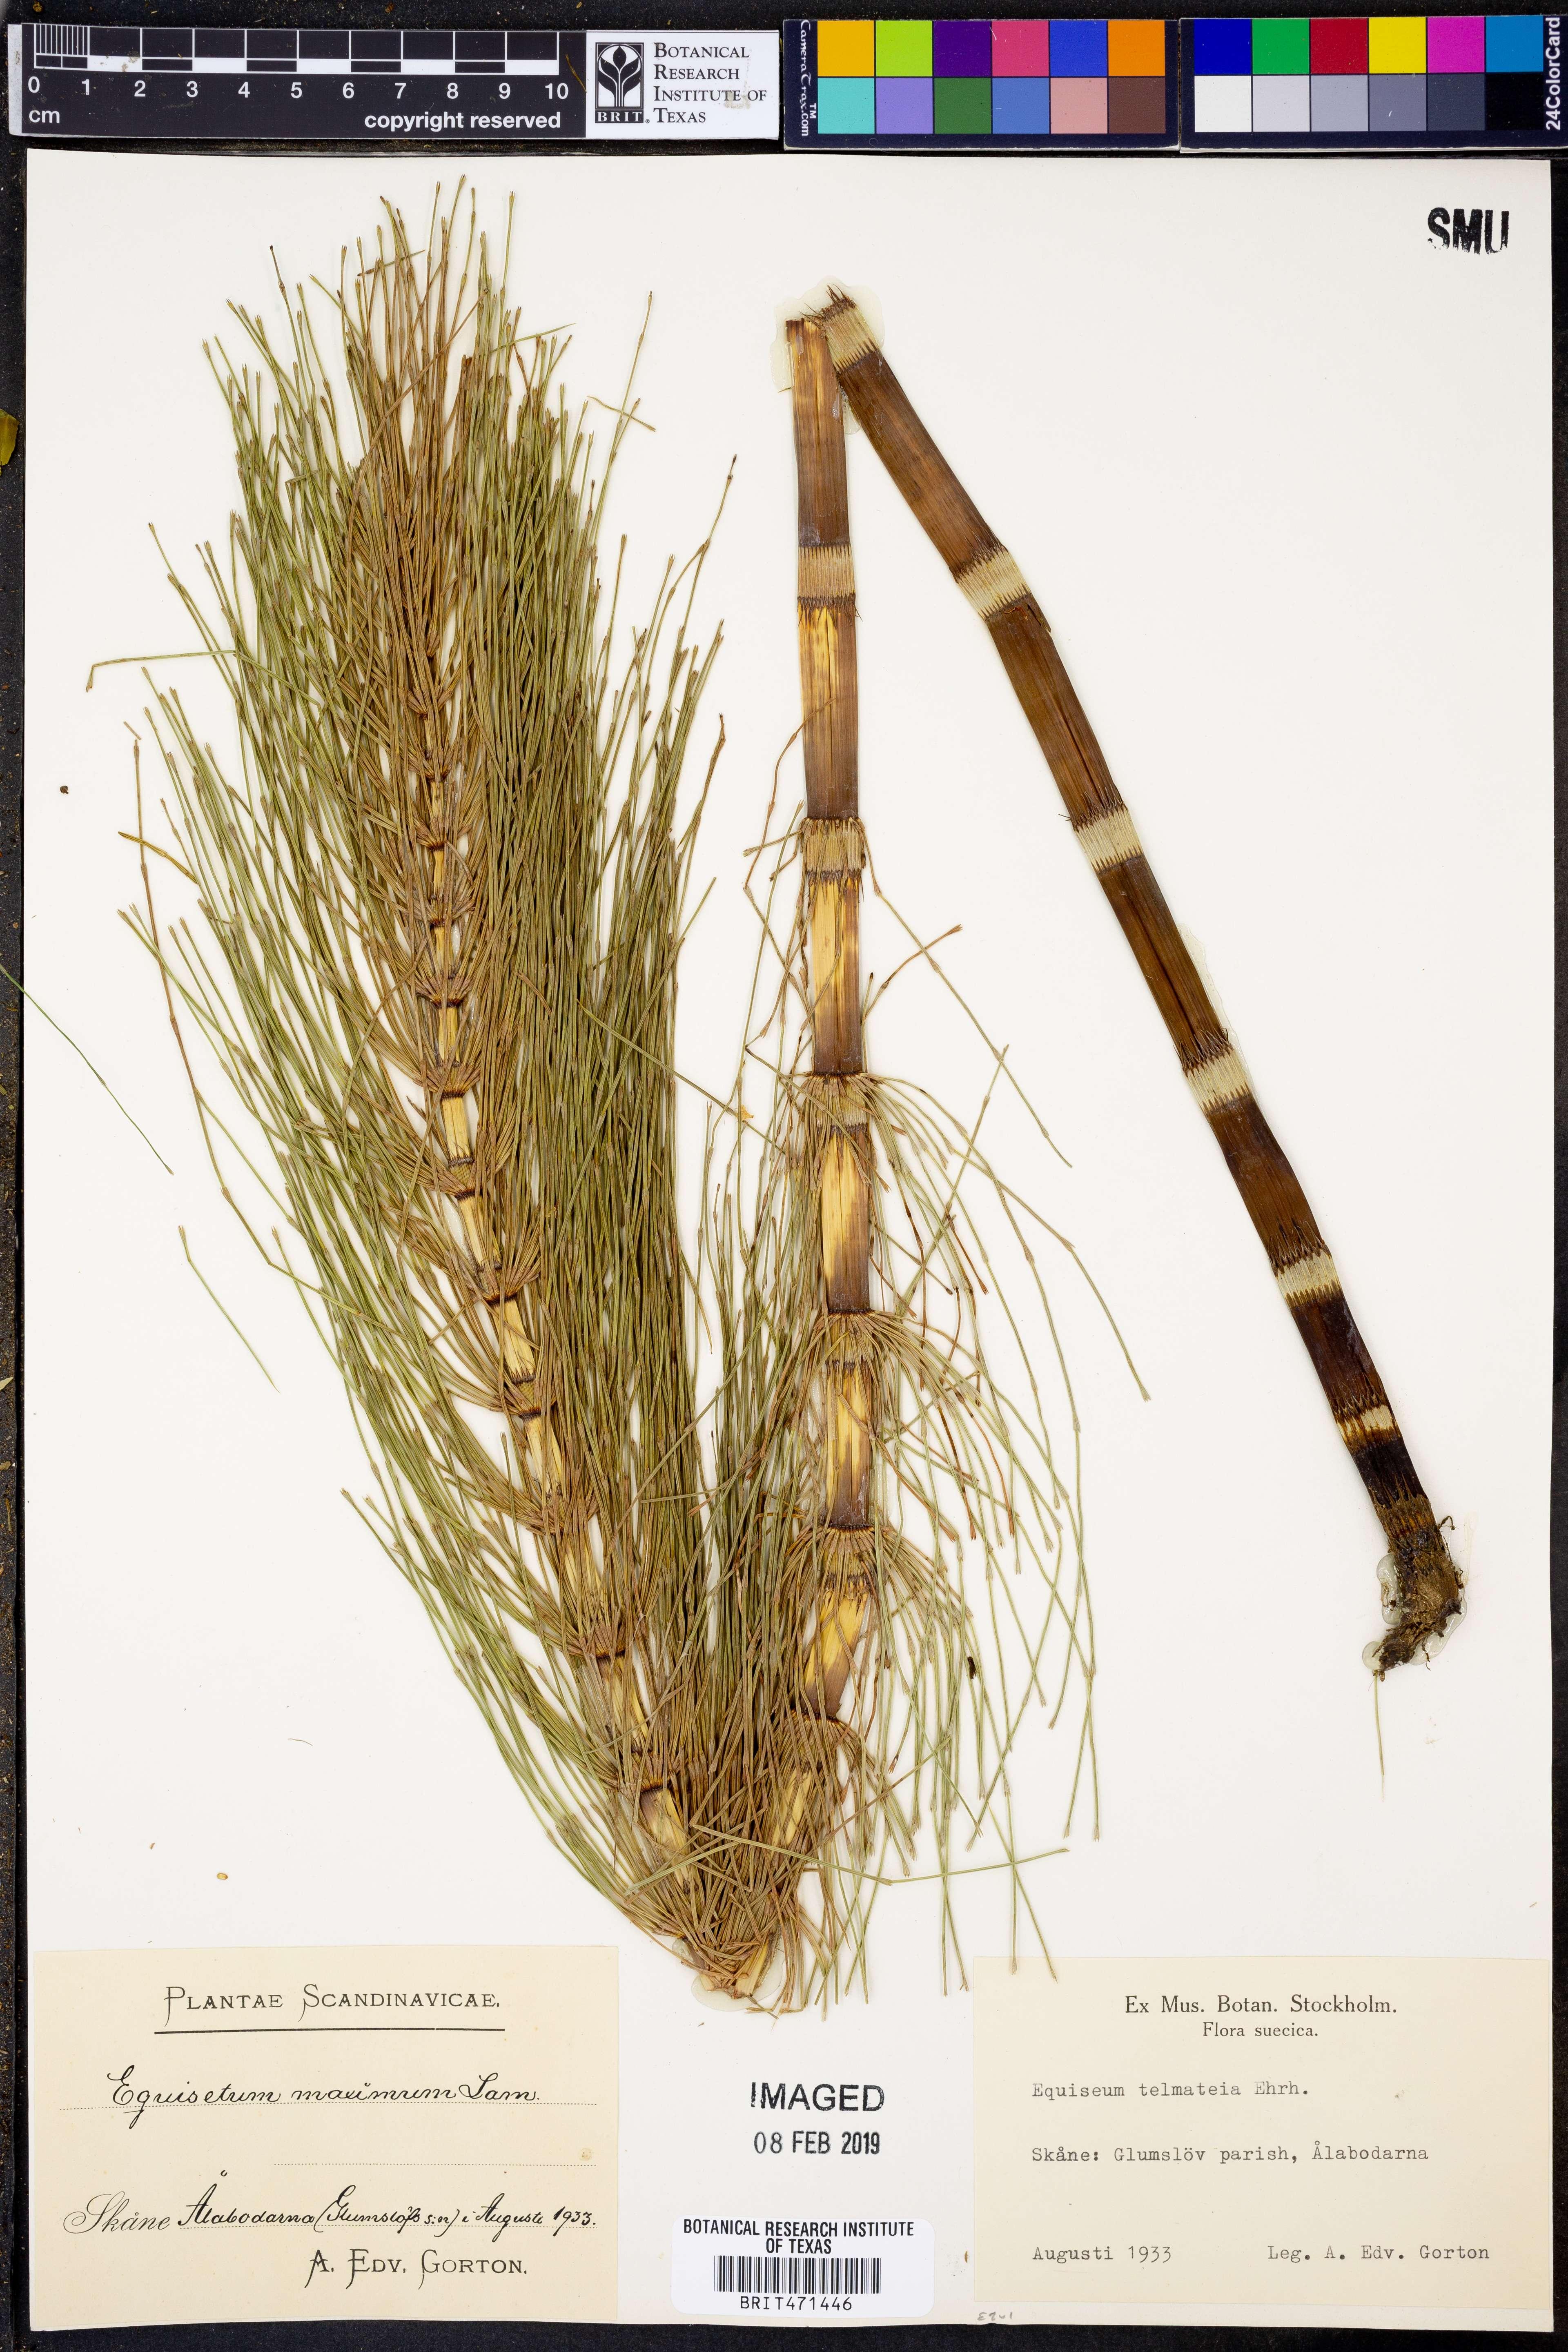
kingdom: Plantae
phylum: Tracheophyta
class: Polypodiopsida
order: Equisetales
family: Equisetaceae
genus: Equisetum
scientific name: Equisetum telmateia
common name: Great horsetail
